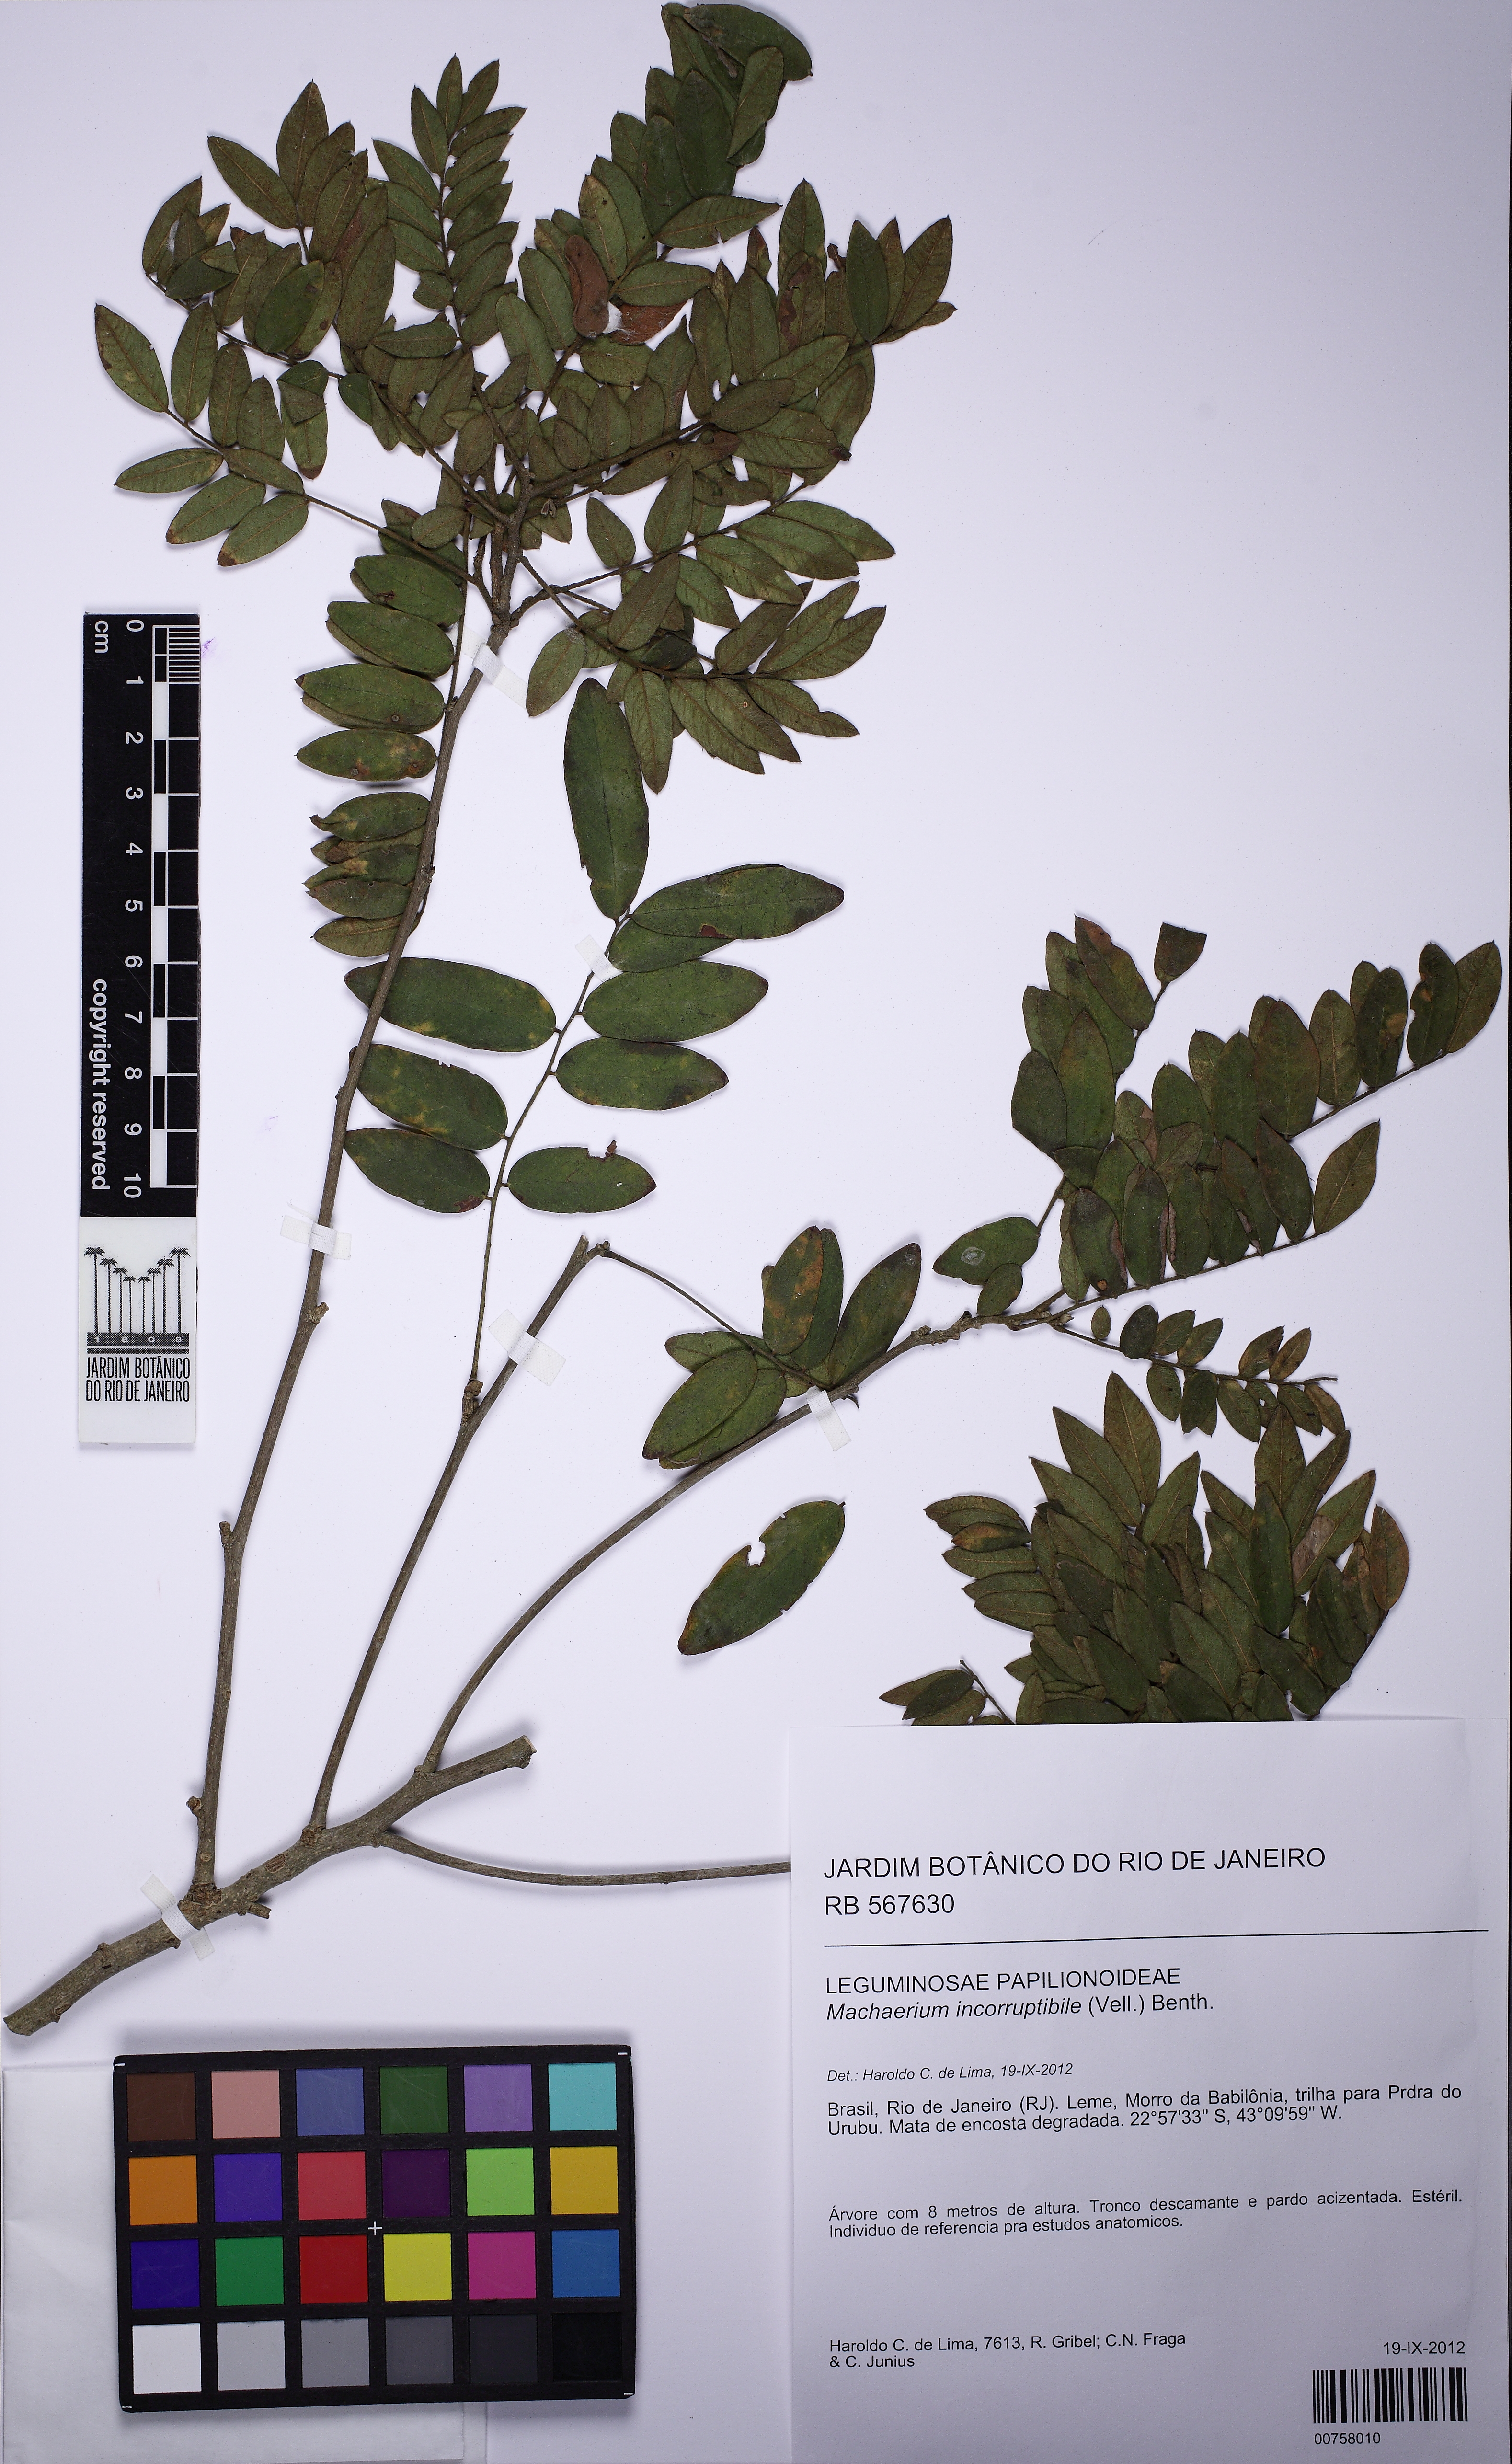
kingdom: Plantae
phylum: Tracheophyta
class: Magnoliopsida
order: Fabales
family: Fabaceae
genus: Machaerium
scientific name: Machaerium incorruptibile
